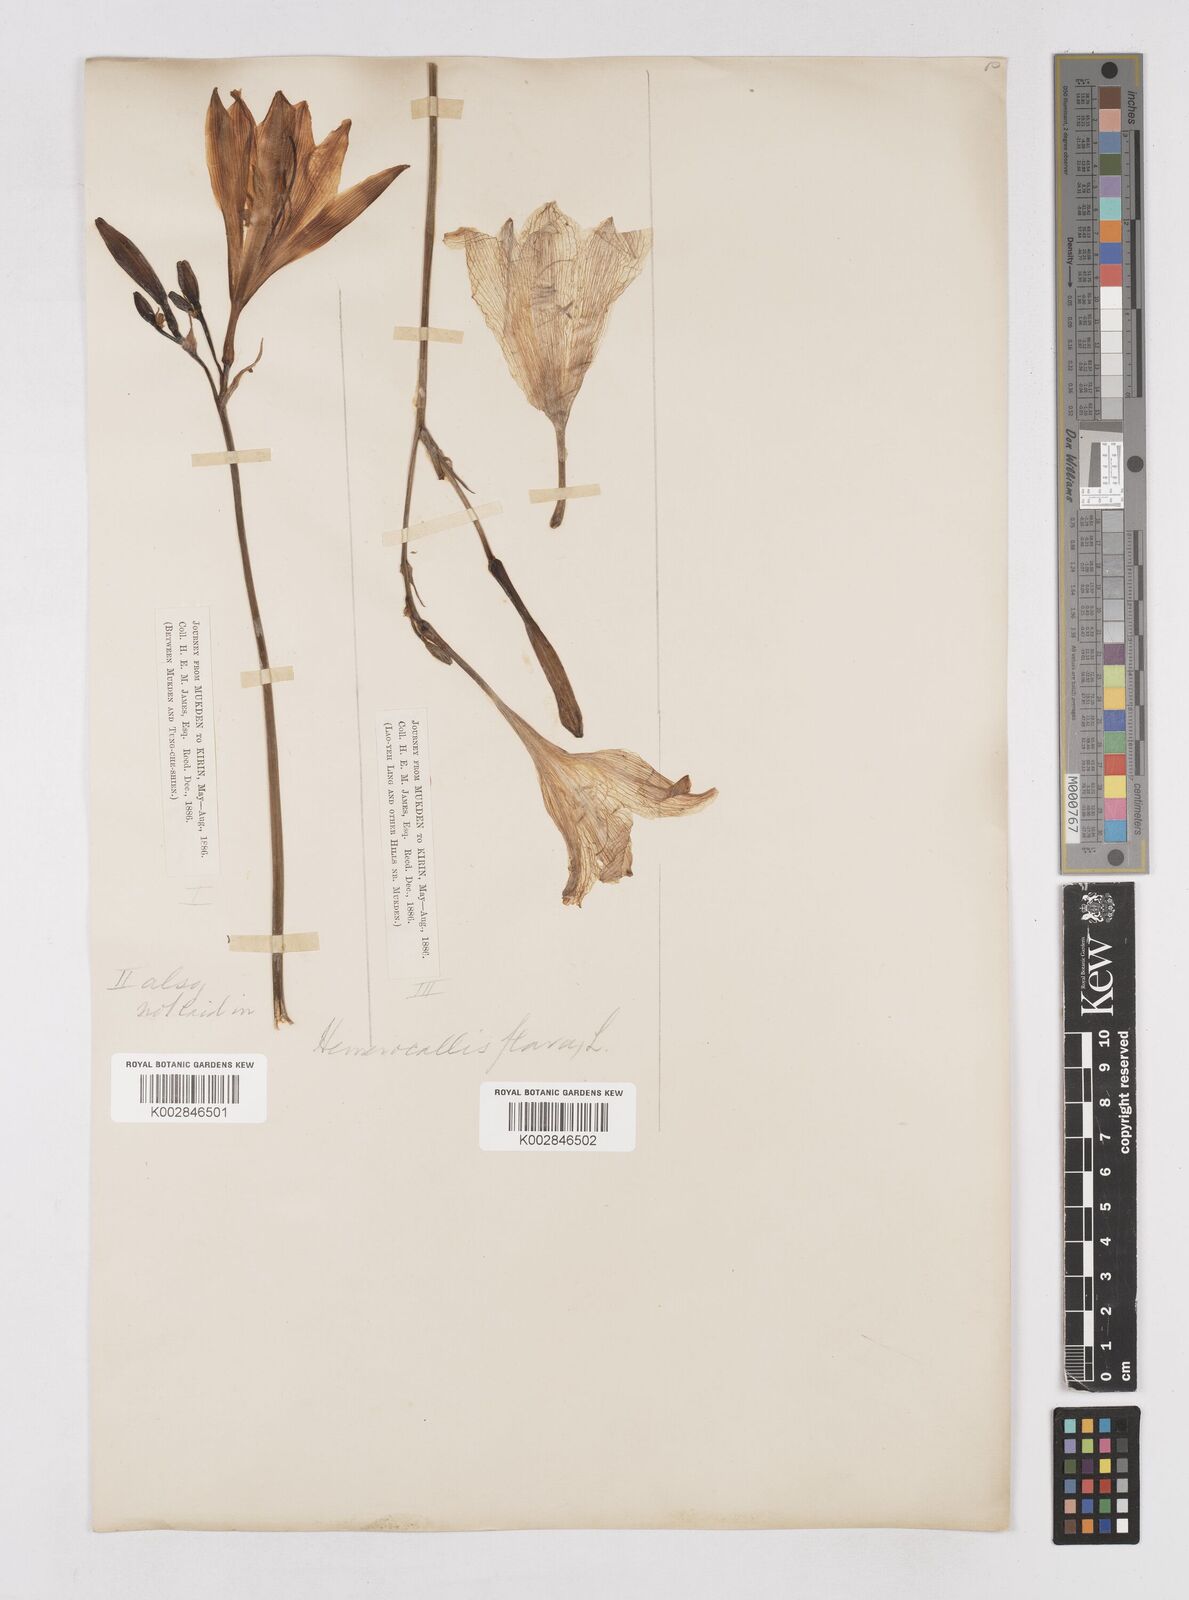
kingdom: Plantae
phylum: Tracheophyta
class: Liliopsida
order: Asparagales
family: Asphodelaceae
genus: Hemerocallis
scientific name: Hemerocallis lilioasphodelus
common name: Yellow day-lily
